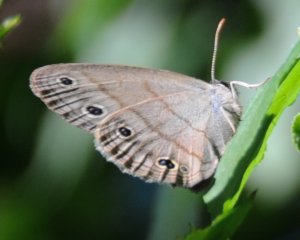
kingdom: Animalia
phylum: Arthropoda
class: Insecta
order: Lepidoptera
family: Nymphalidae
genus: Euptychia
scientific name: Euptychia cymela
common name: Little Wood Satyr
